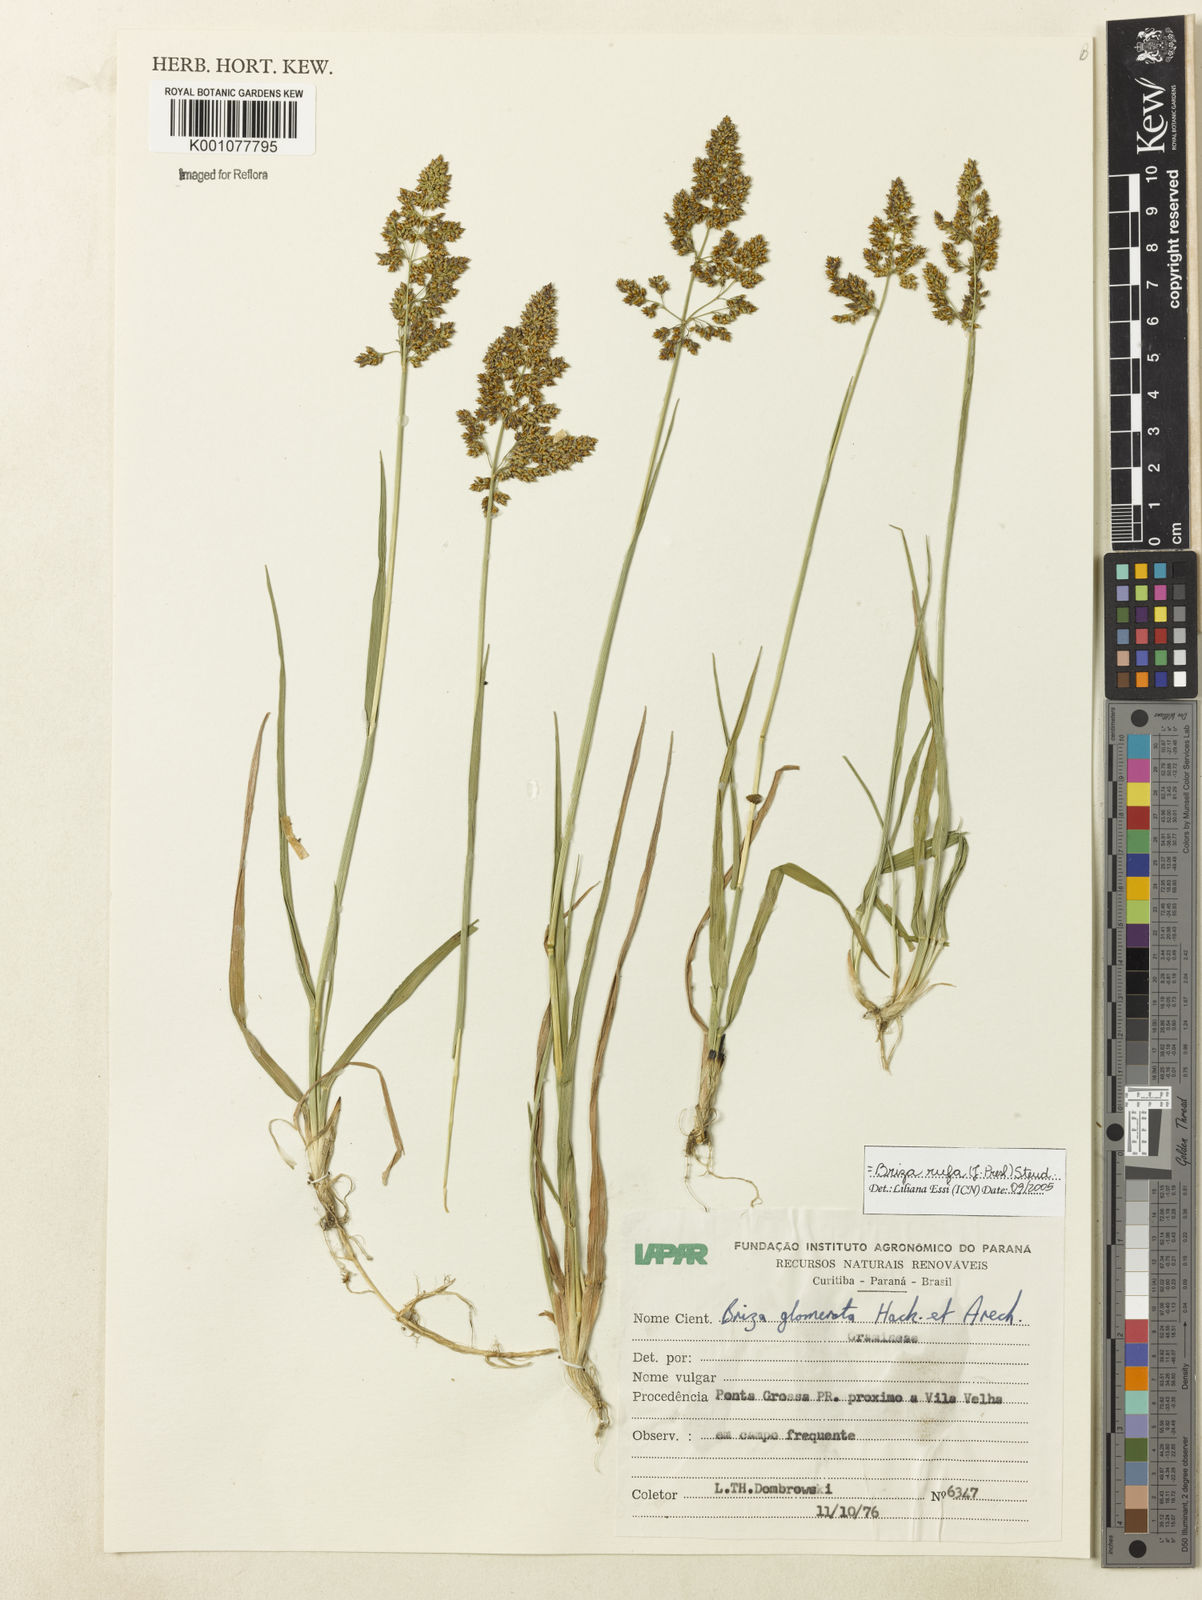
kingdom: Plantae
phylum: Tracheophyta
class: Liliopsida
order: Poales
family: Poaceae
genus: Lombardochloa
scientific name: Lombardochloa rufa
